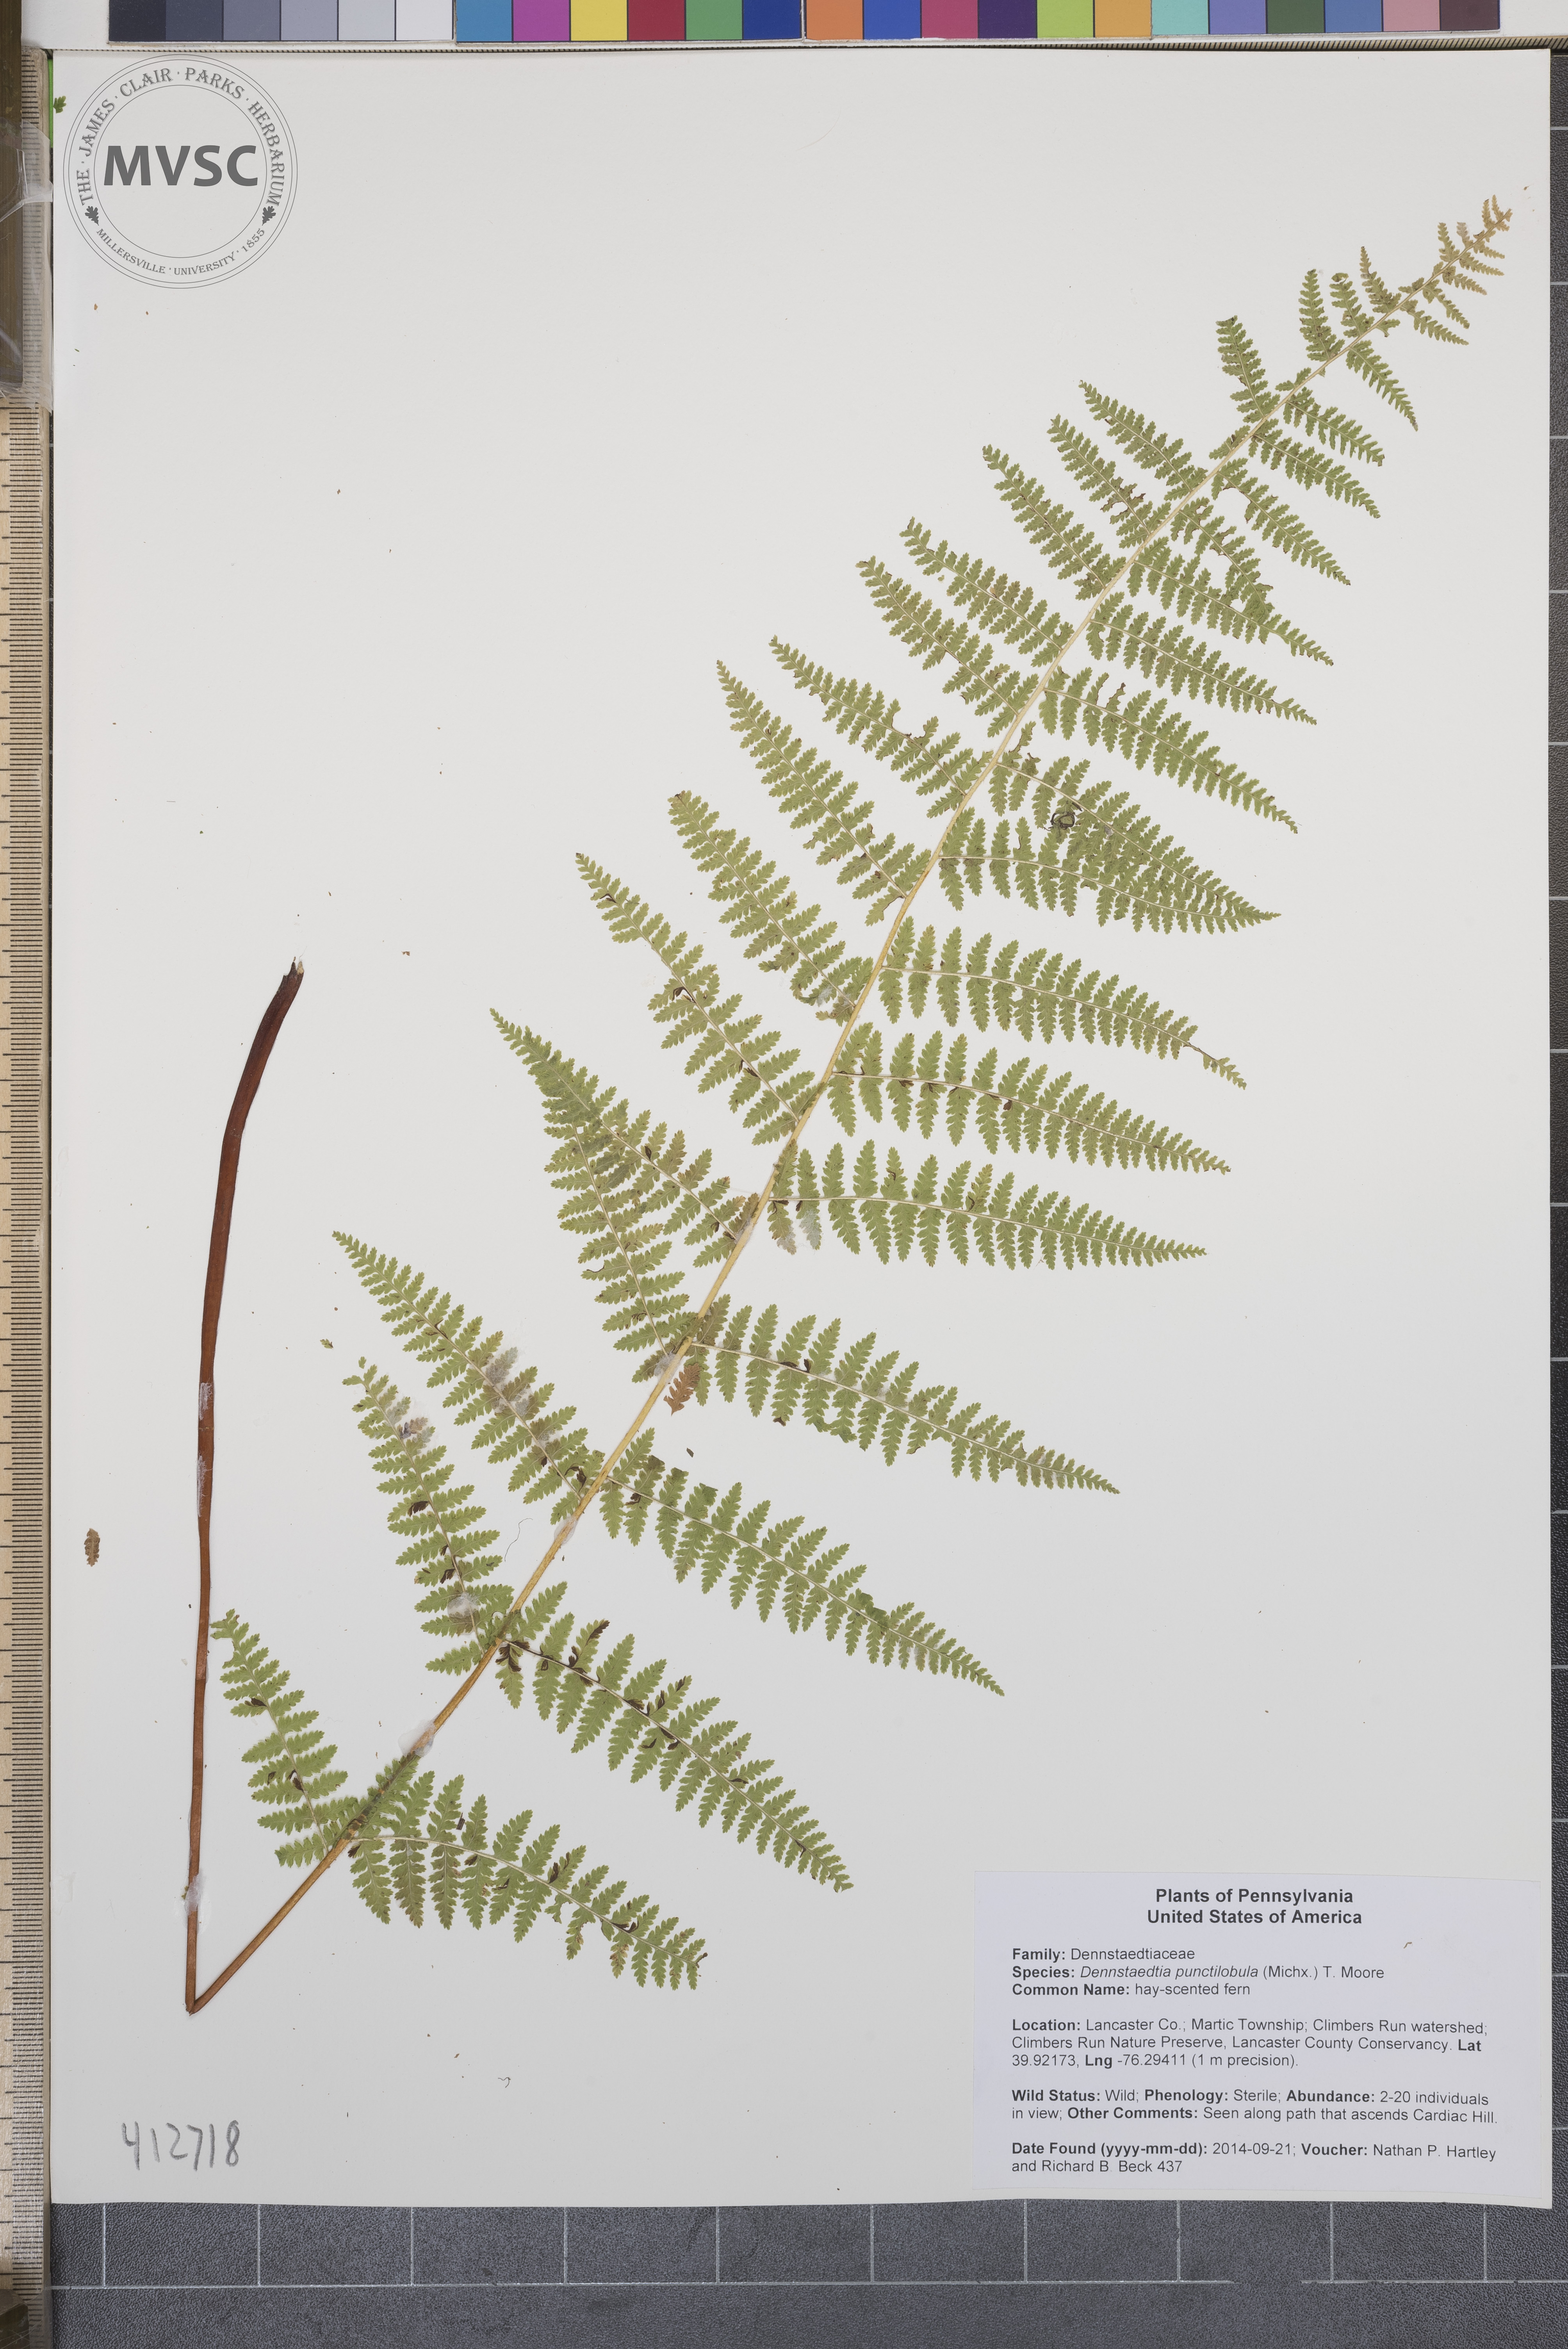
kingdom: Plantae
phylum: Tracheophyta
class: Polypodiopsida
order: Polypodiales
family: Dennstaedtiaceae
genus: Sitobolium
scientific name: Sitobolium punctilobum
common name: hay-scented fern
